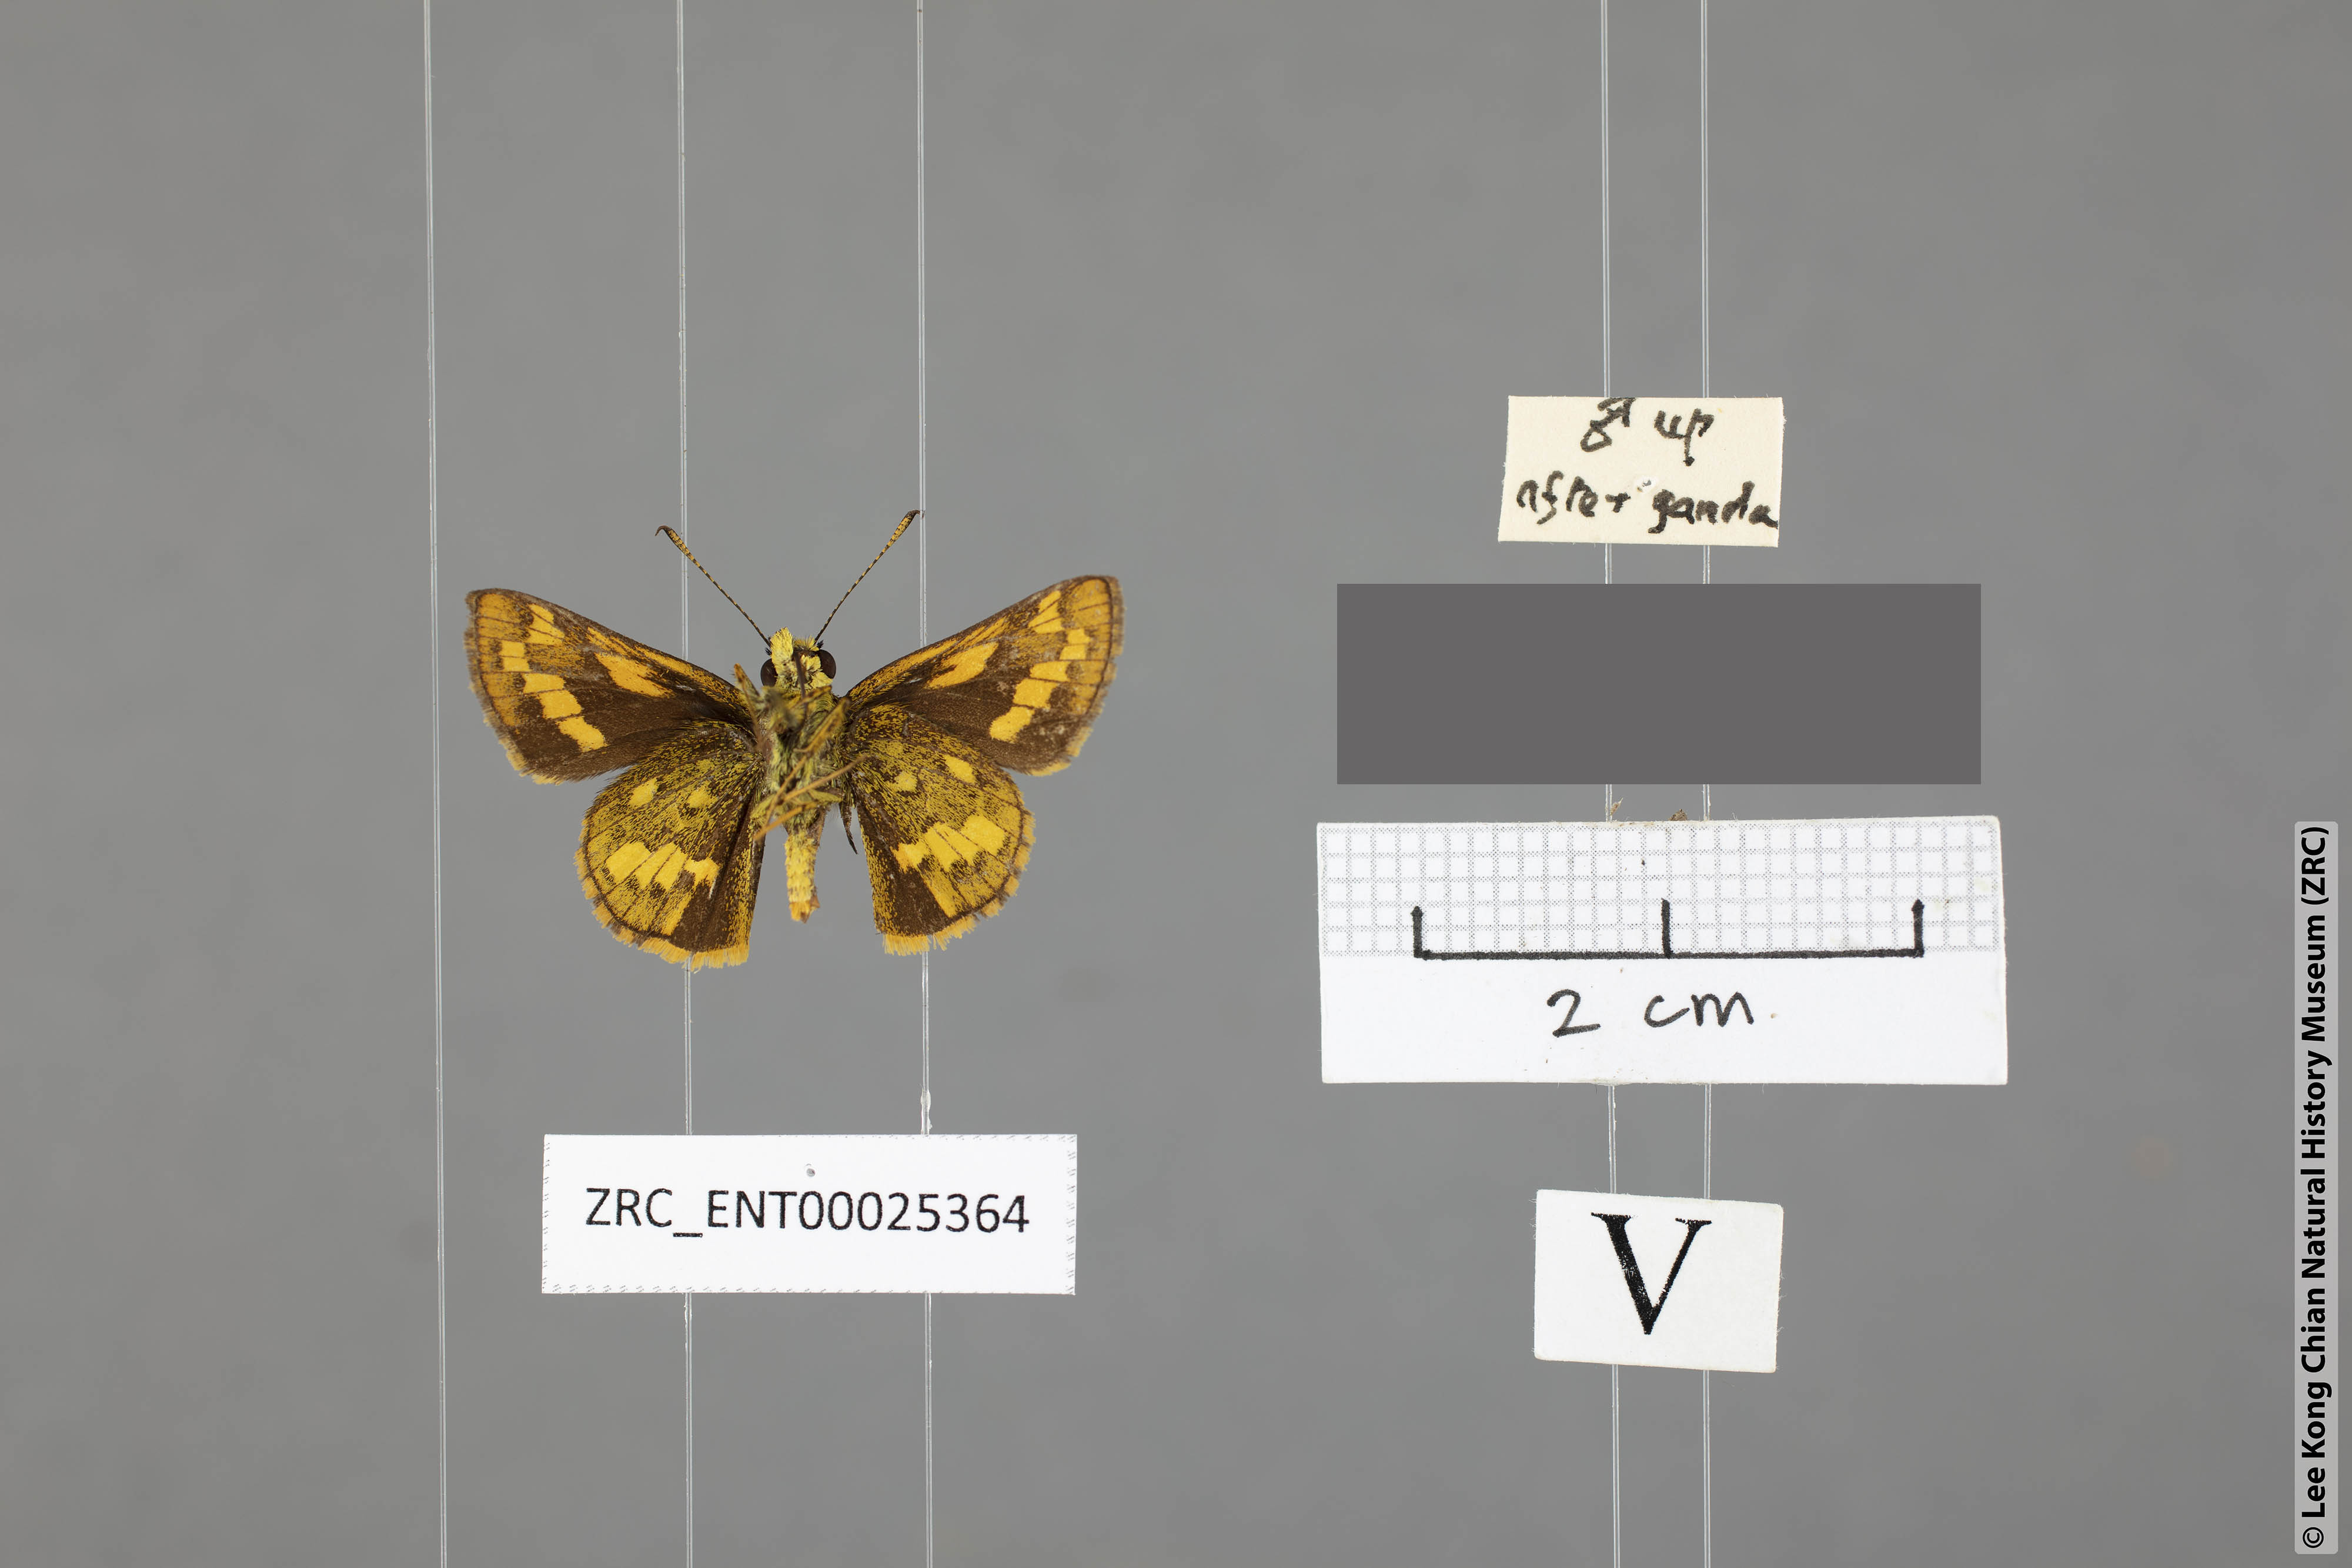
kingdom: Animalia
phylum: Arthropoda
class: Insecta
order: Lepidoptera
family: Hesperiidae
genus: Potanthus
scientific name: Potanthus mingo
